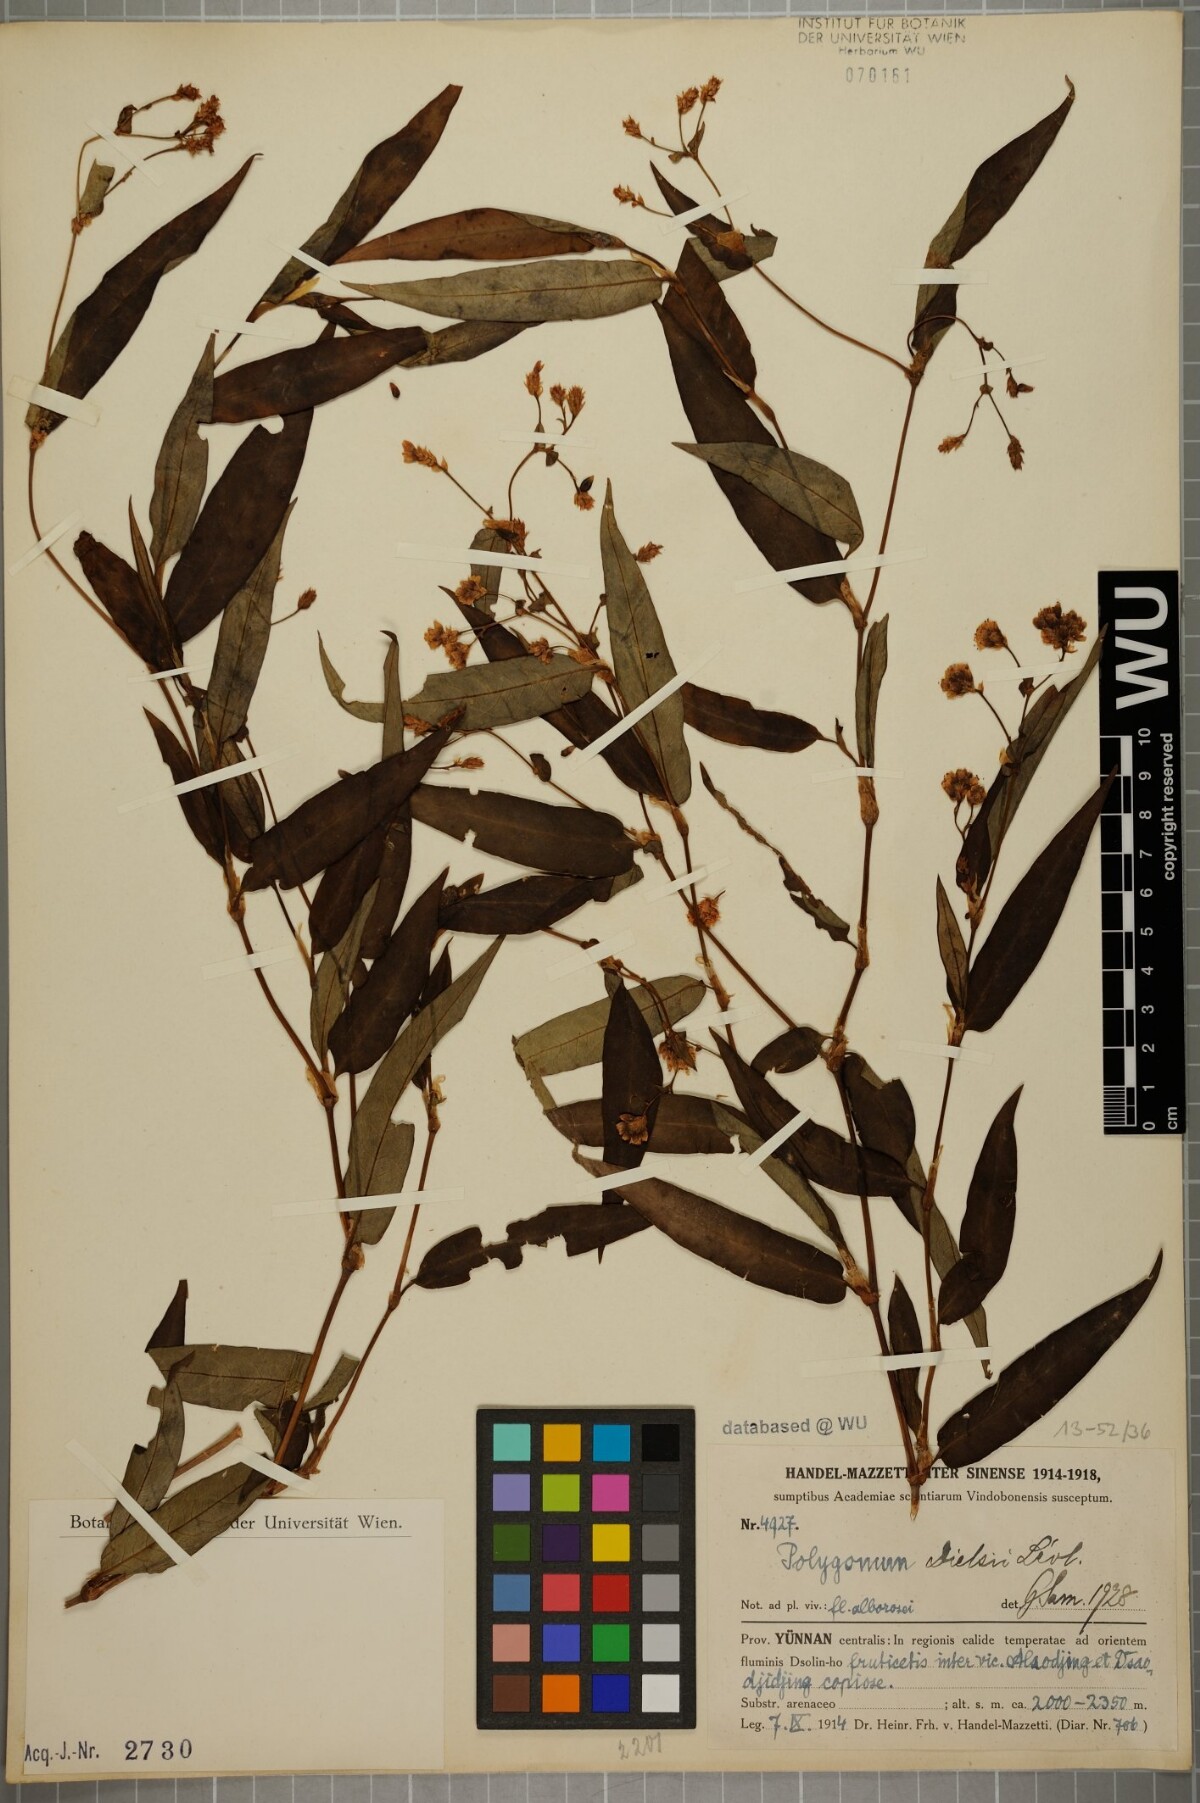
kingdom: Plantae
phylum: Tracheophyta
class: Magnoliopsida
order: Caryophyllales
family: Polygonaceae
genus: Persicaria
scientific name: Persicaria paradoxa
